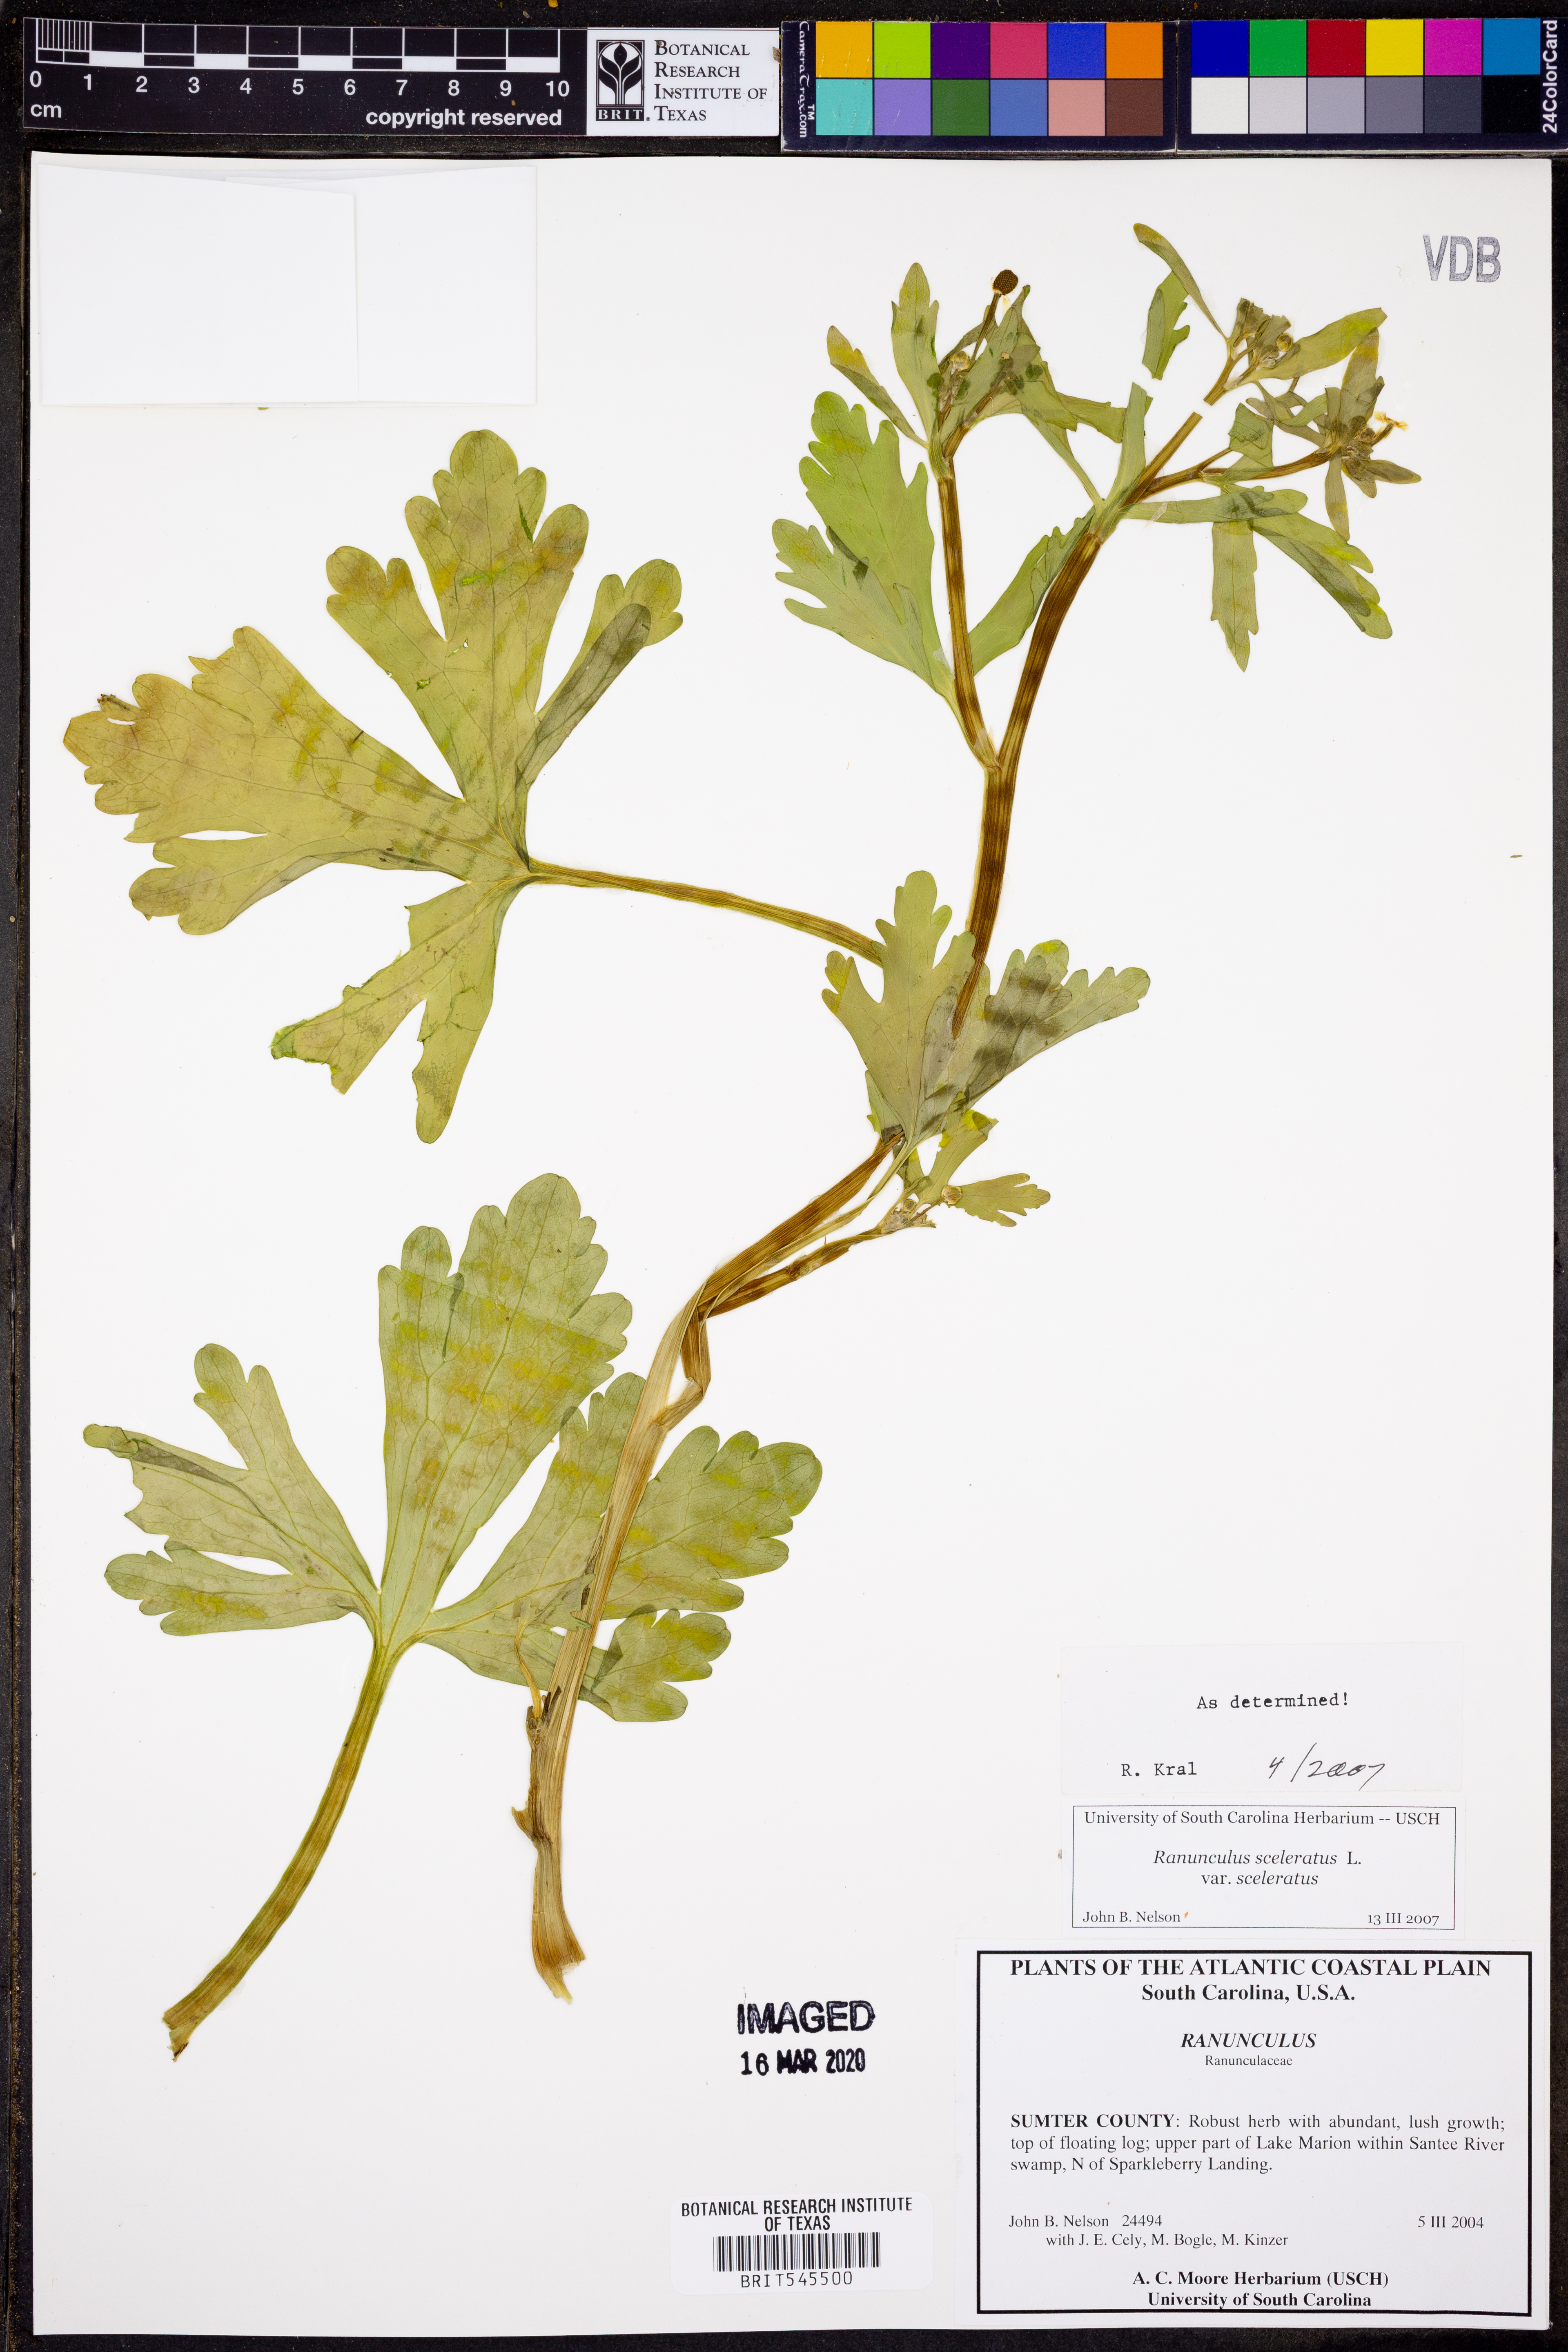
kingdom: Plantae
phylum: Tracheophyta
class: Magnoliopsida
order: Ranunculales
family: Ranunculaceae
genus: Ranunculus
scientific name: Ranunculus sceleratus
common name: Celery-leaved buttercup
